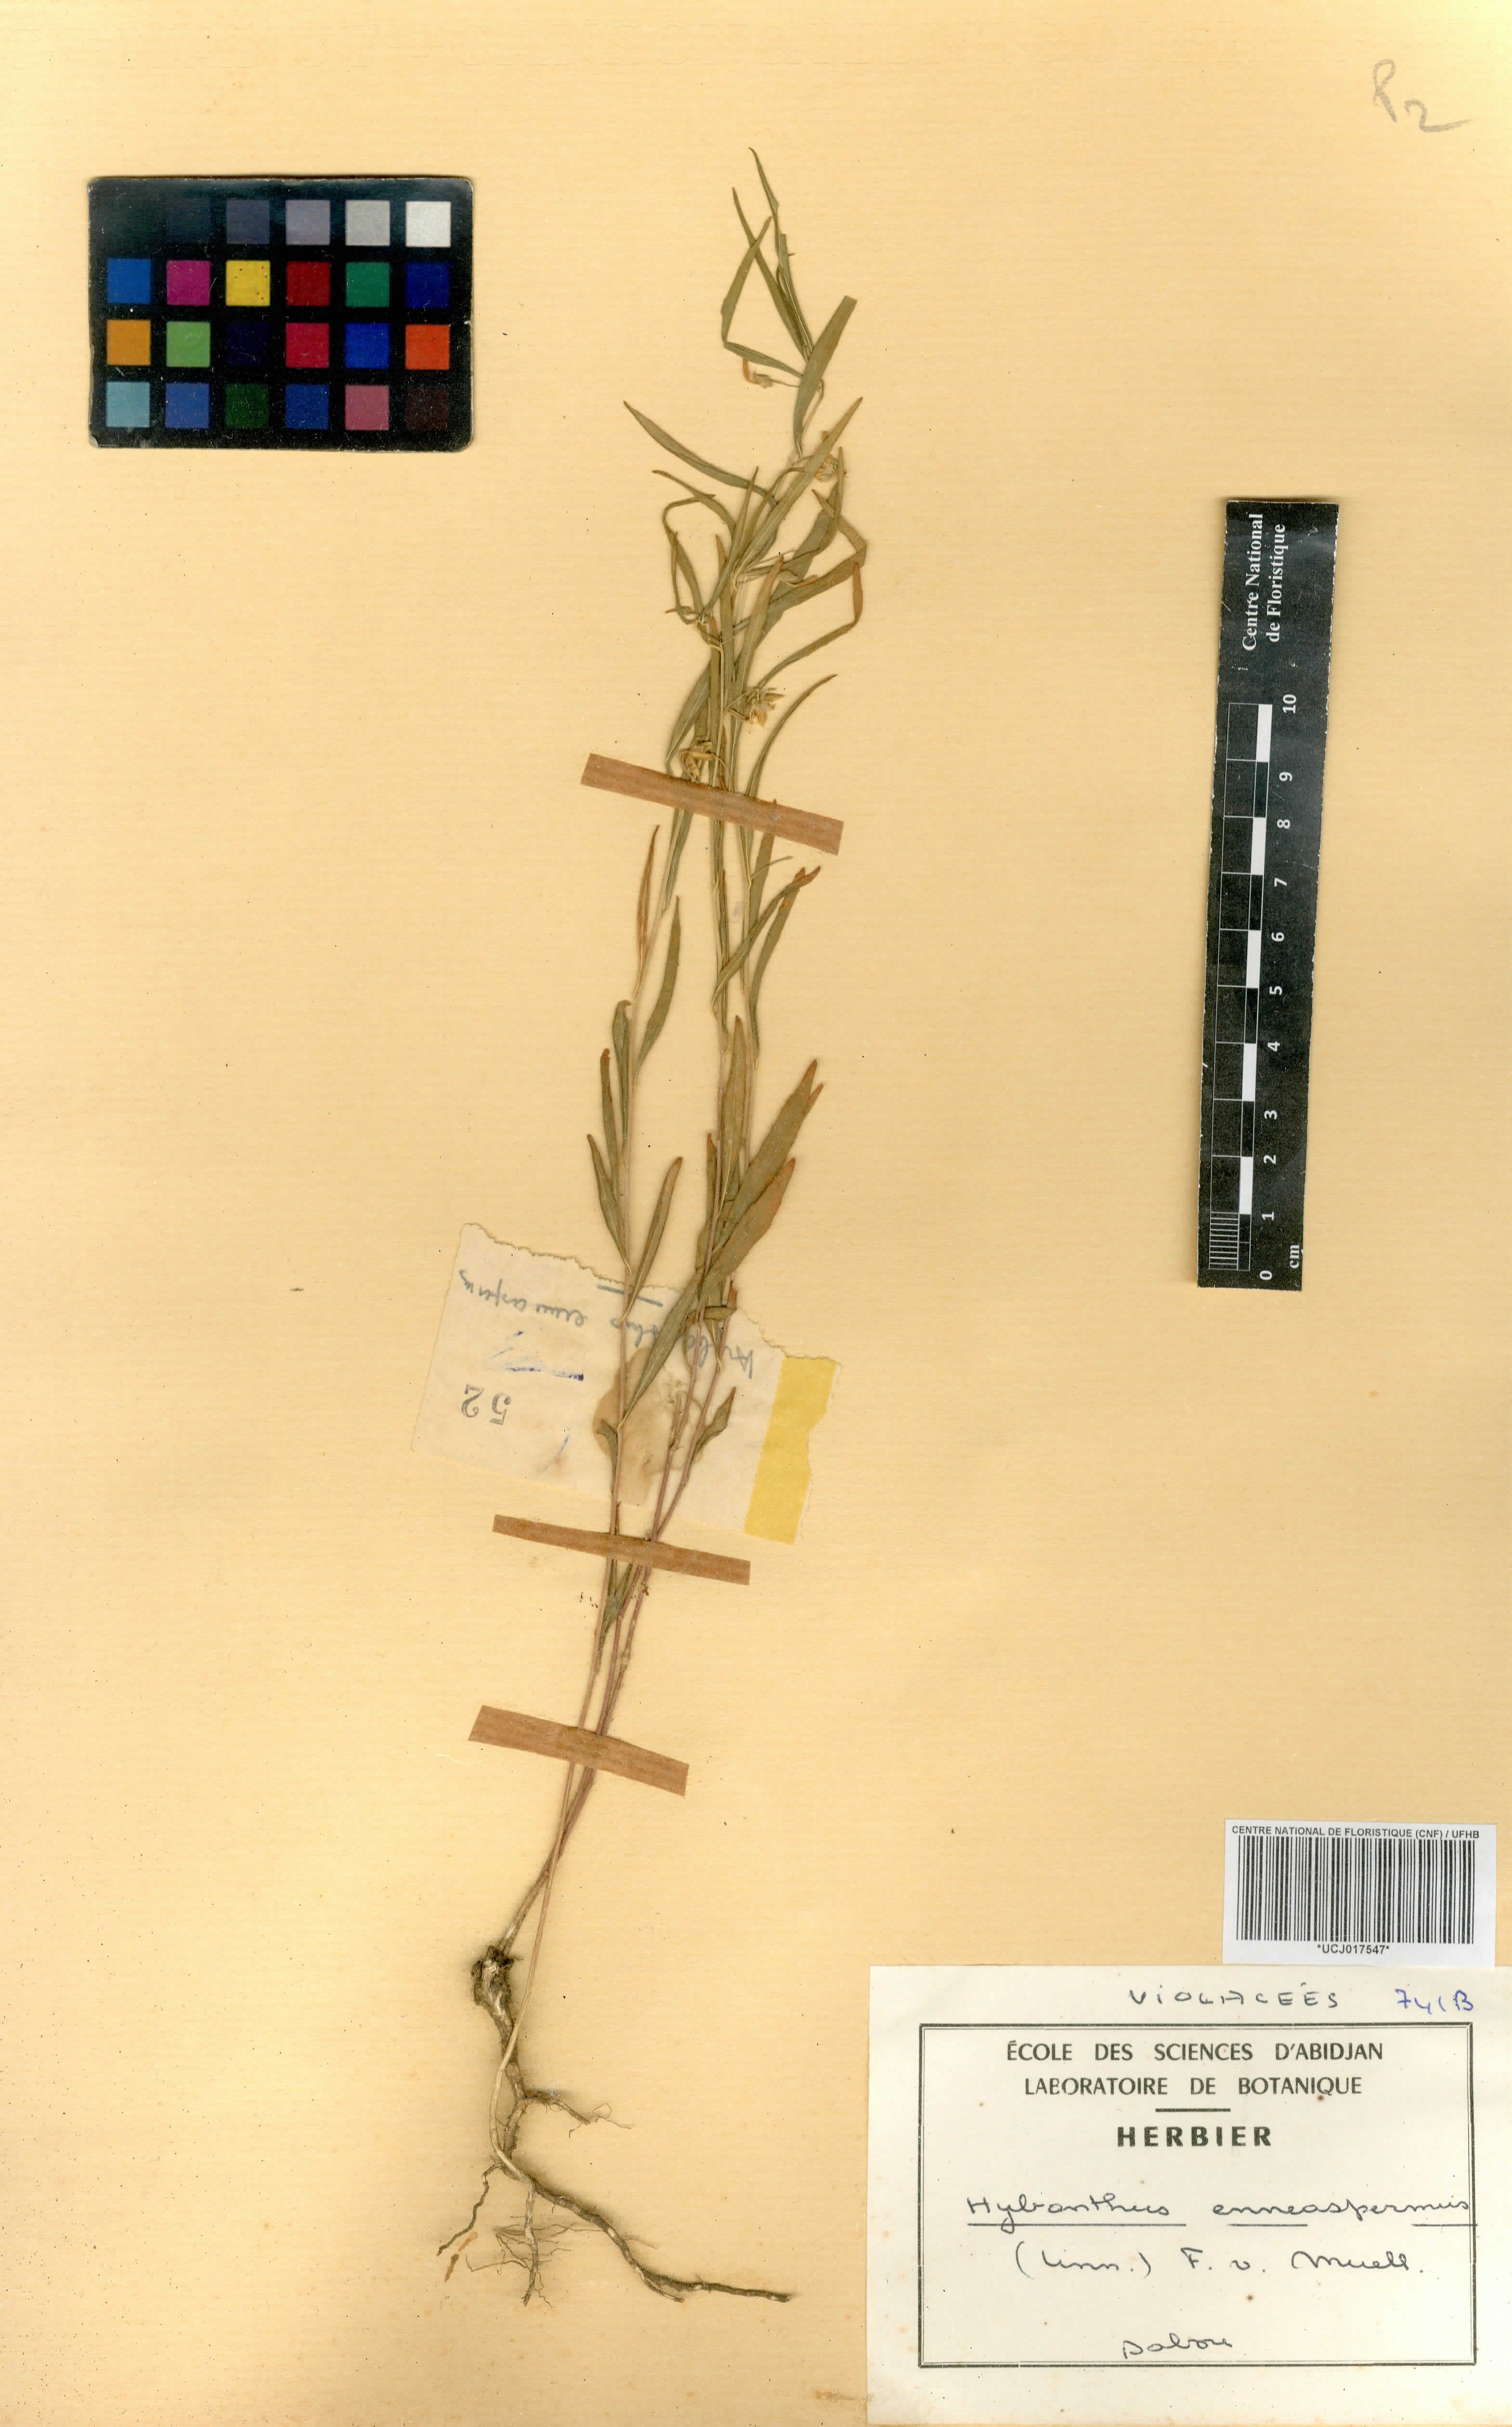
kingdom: Plantae
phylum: Tracheophyta
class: Magnoliopsida
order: Malpighiales
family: Violaceae
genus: Pigea
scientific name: Pigea enneasperma
